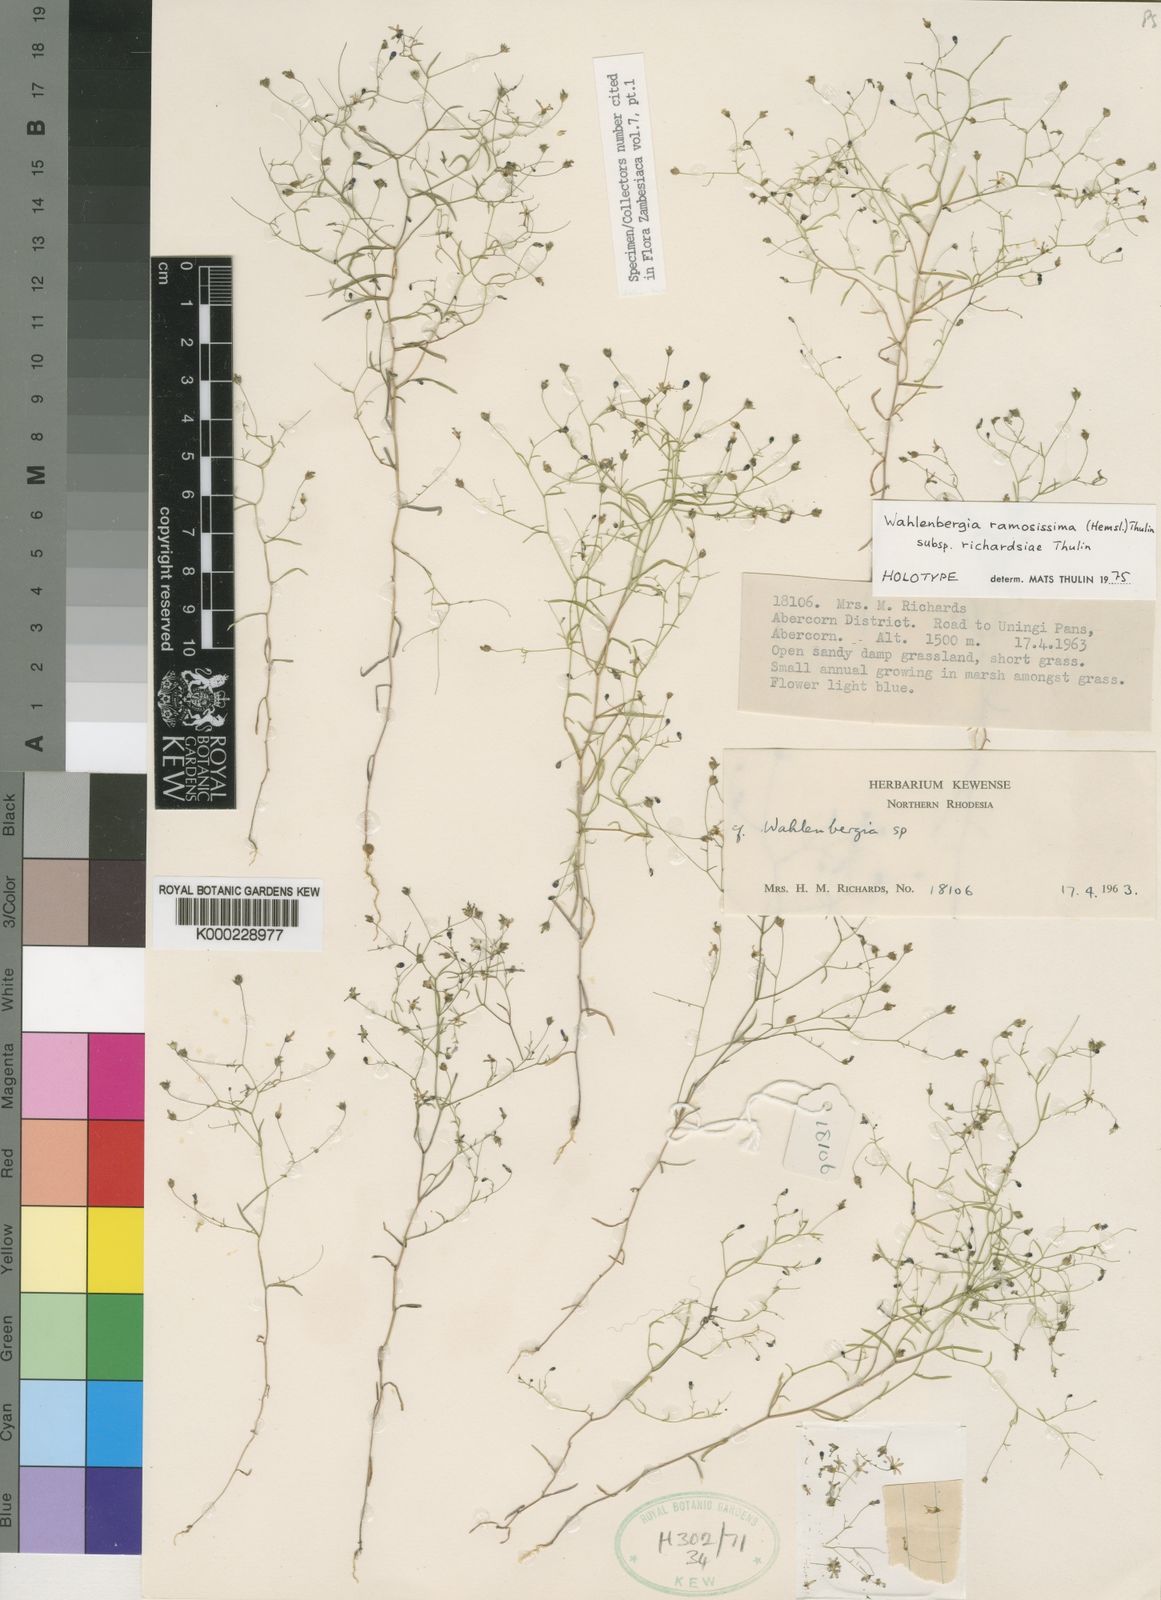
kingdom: Plantae
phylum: Tracheophyta
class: Magnoliopsida
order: Asterales
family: Campanulaceae
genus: Wahlenbergia
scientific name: Wahlenbergia ramosissima
